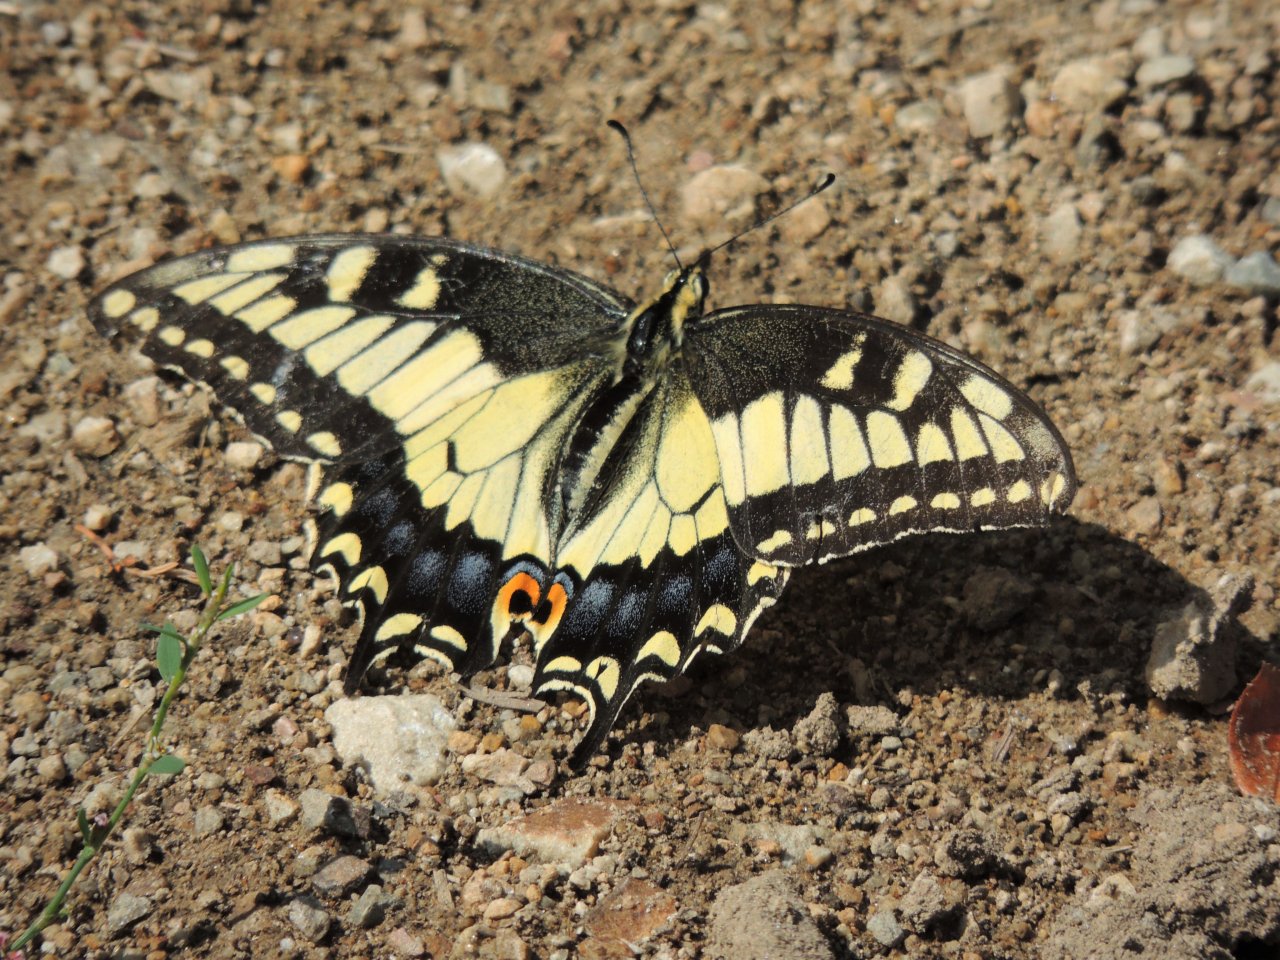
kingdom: Animalia
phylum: Arthropoda
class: Insecta
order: Lepidoptera
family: Papilionidae
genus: Papilio
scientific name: Papilio machaon
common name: Old World Swallowtail
